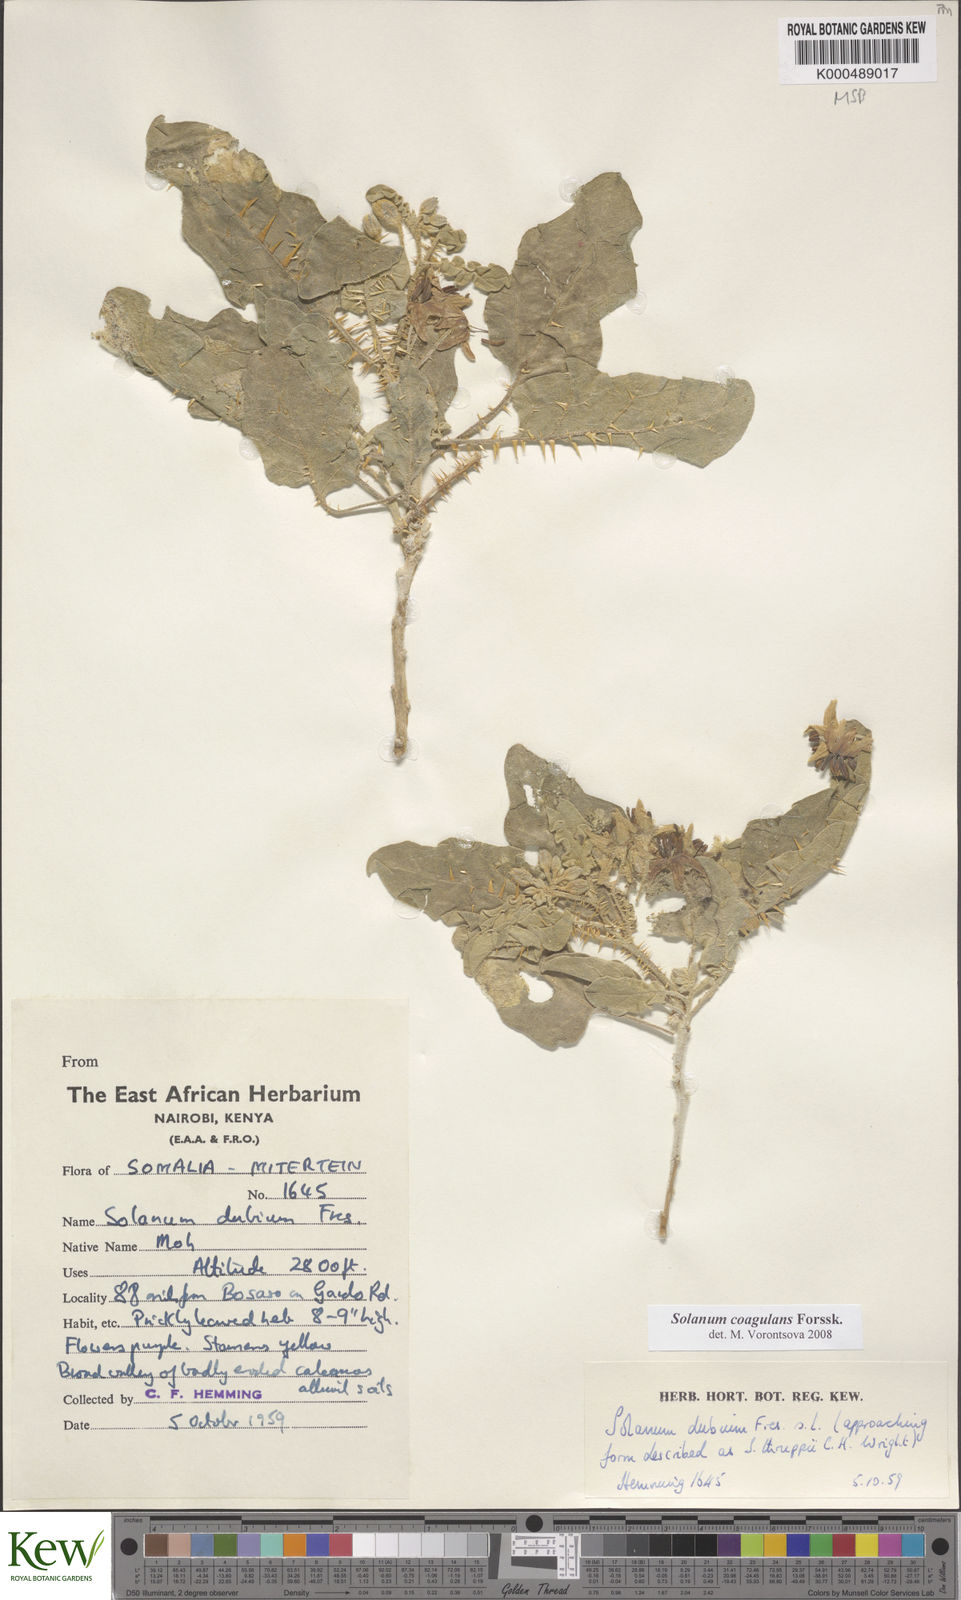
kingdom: Plantae
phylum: Tracheophyta
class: Magnoliopsida
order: Solanales
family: Solanaceae
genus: Solanum
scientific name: Solanum coagulans
